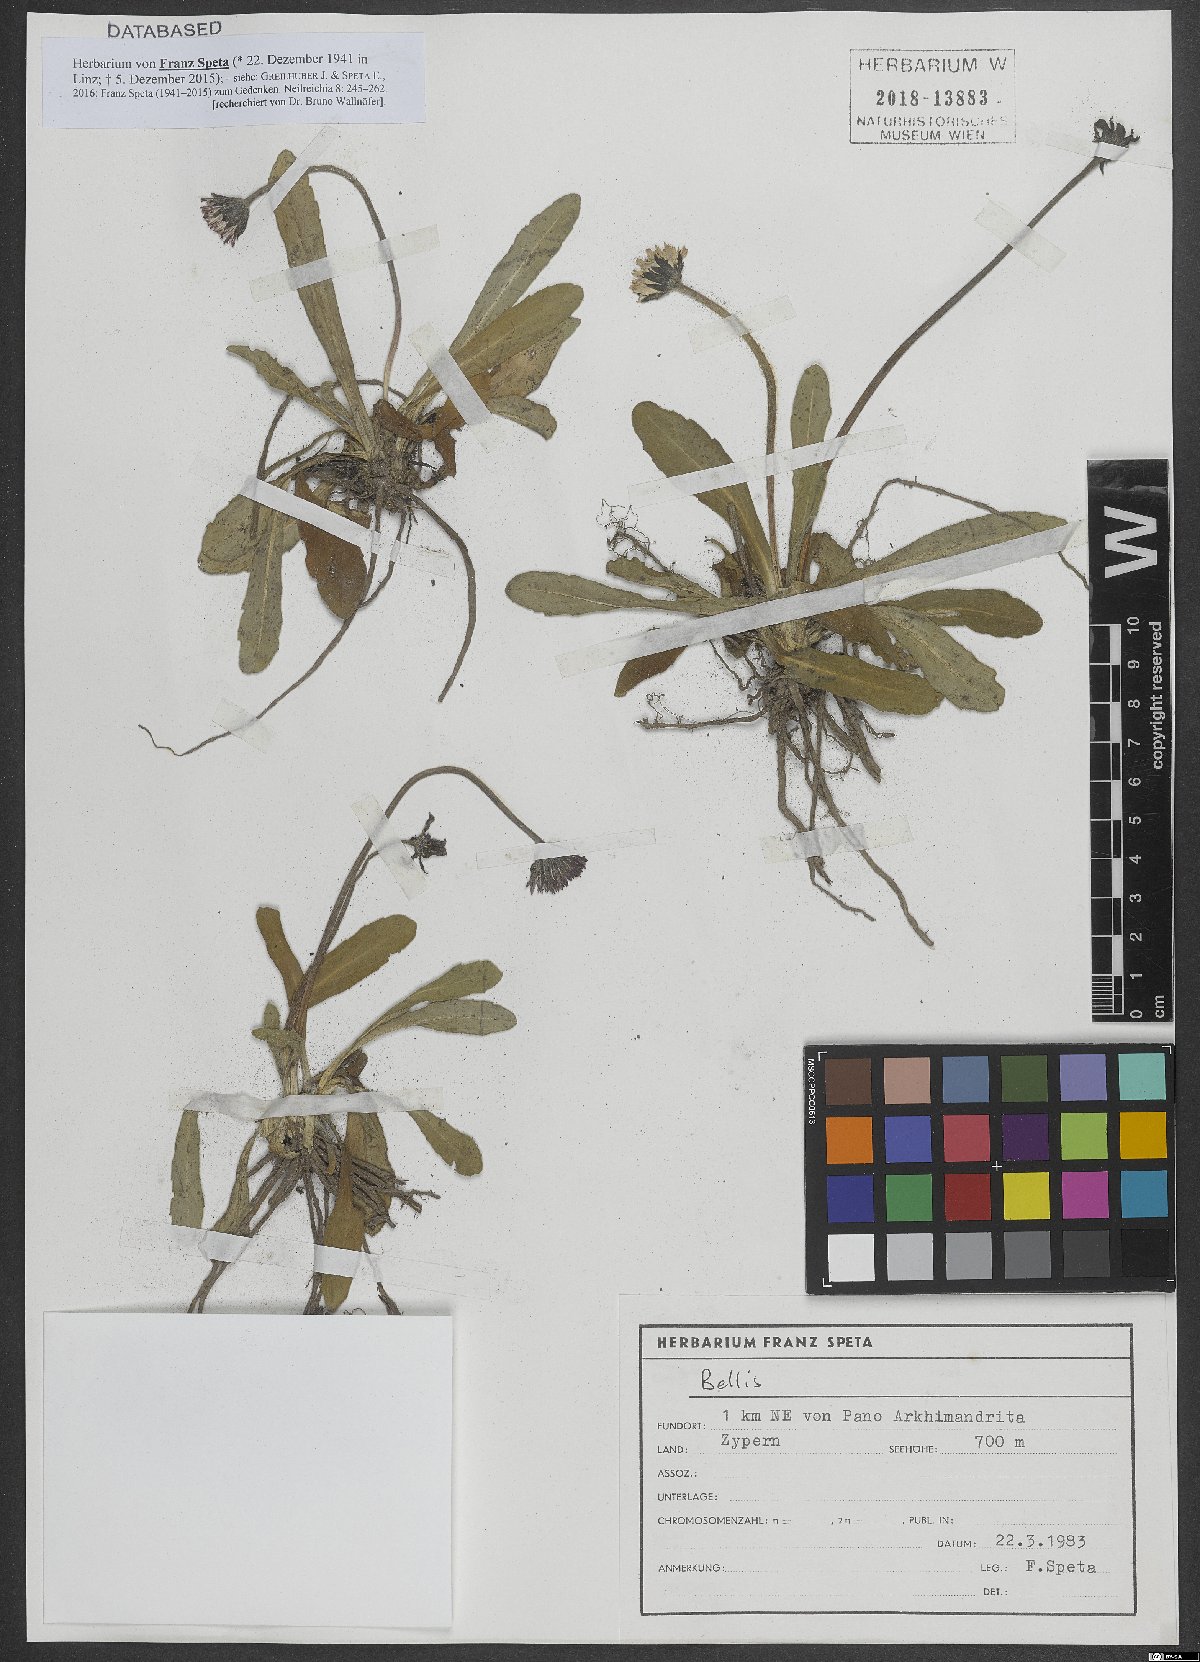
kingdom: Plantae
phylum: Tracheophyta
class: Magnoliopsida
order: Asterales
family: Asteraceae
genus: Bellis
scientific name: Bellis
